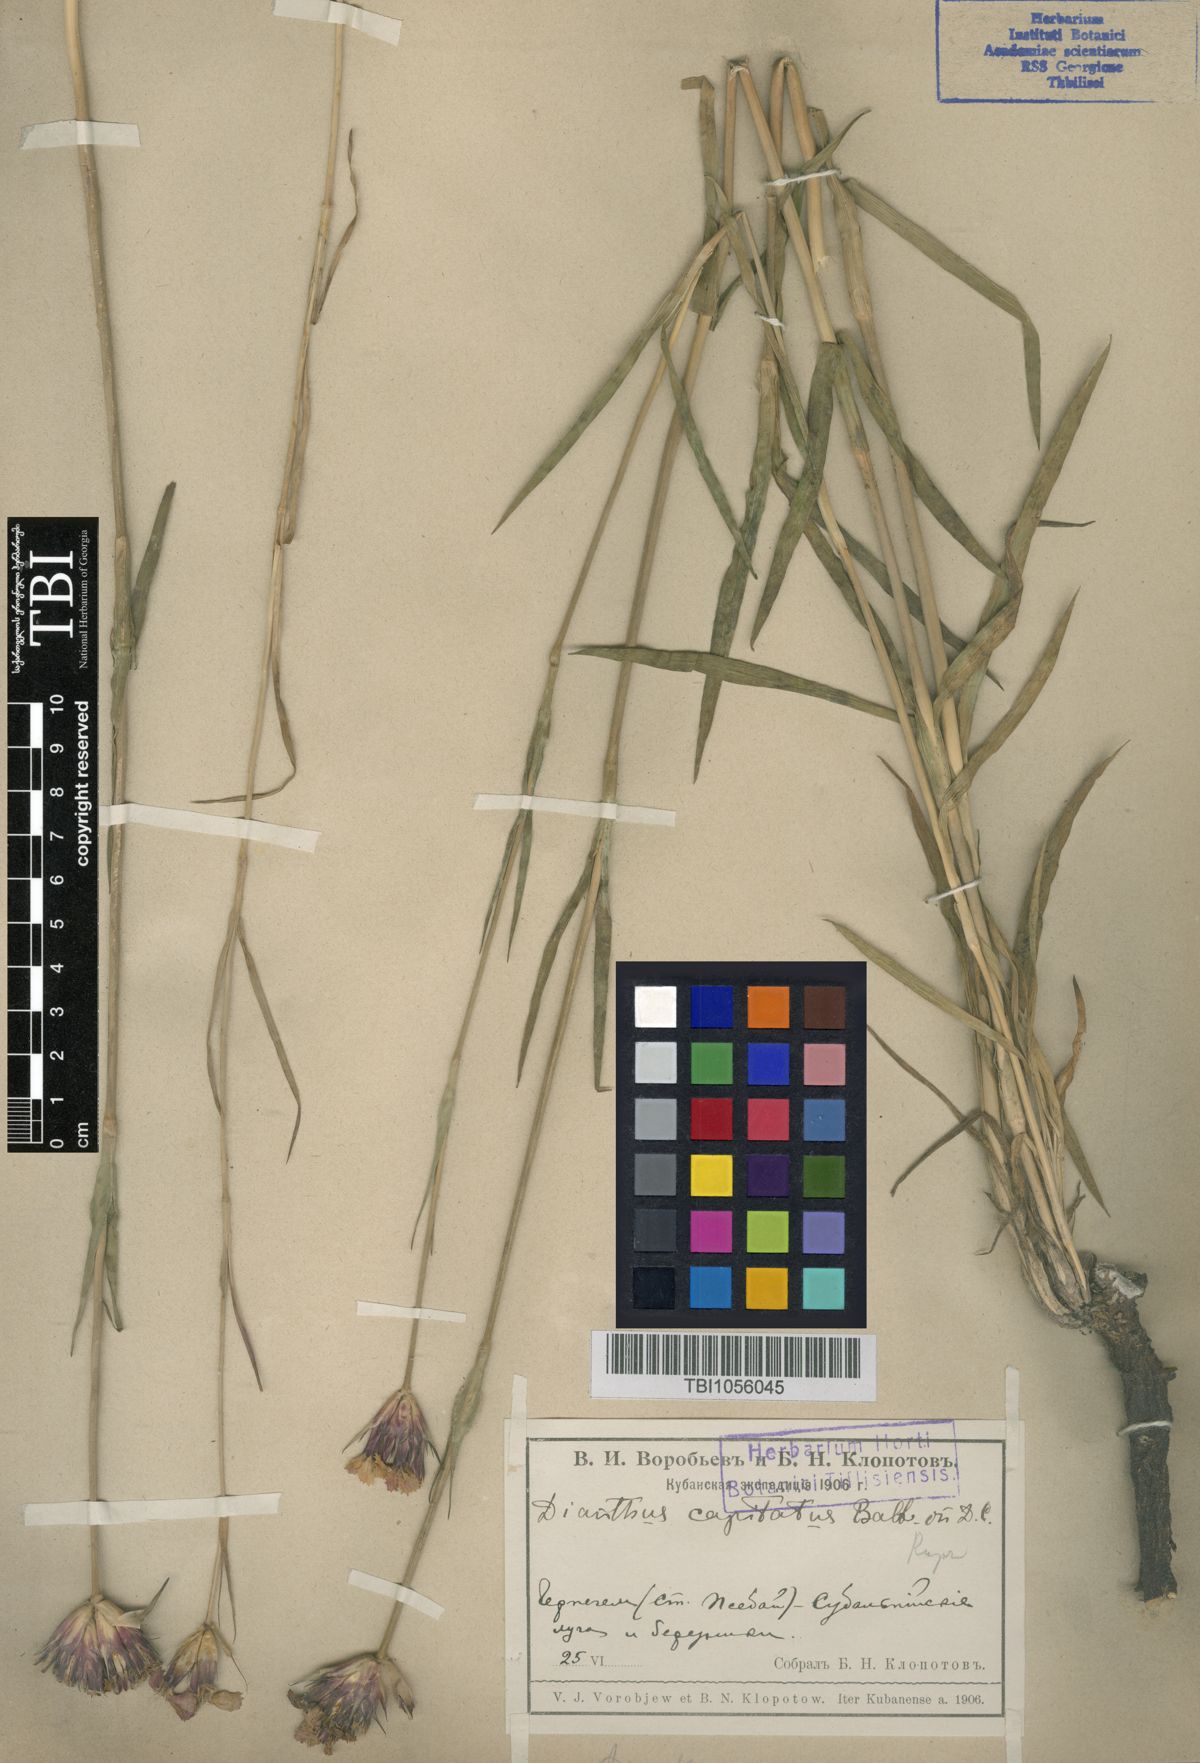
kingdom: Plantae
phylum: Tracheophyta
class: Magnoliopsida
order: Caryophyllales
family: Caryophyllaceae
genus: Dianthus
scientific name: Dianthus ruprechtii
